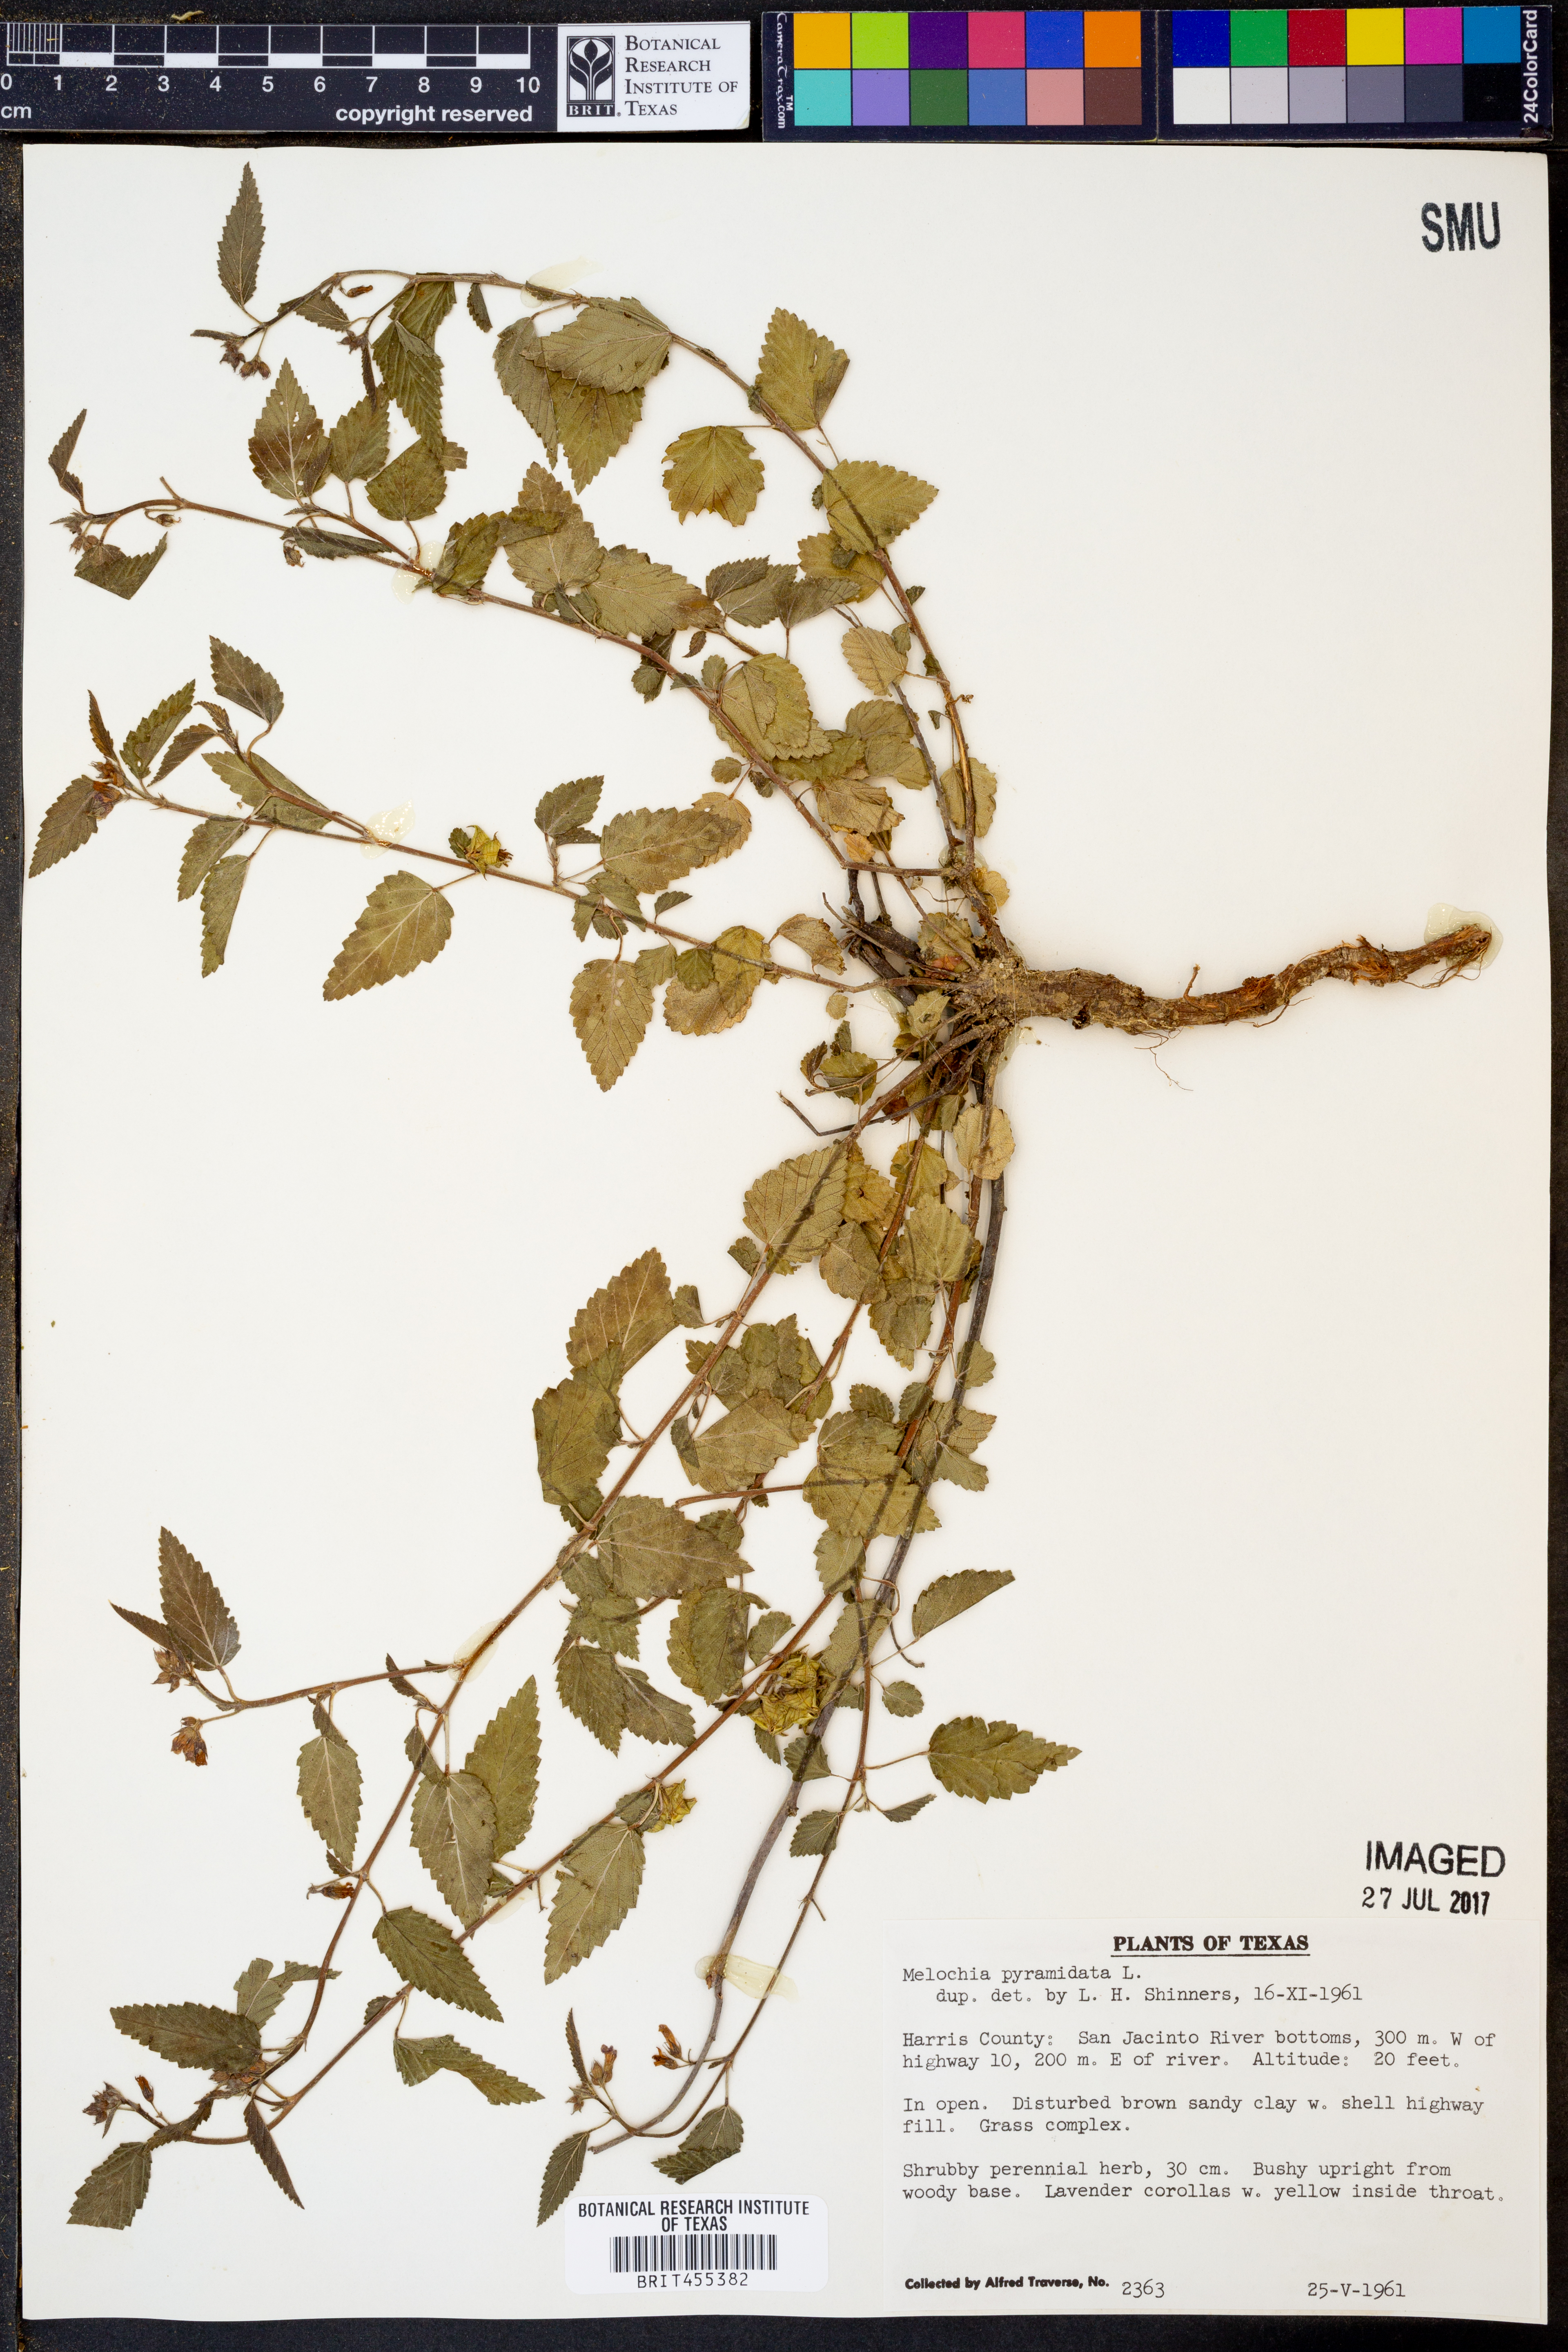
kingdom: Plantae
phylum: Tracheophyta
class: Magnoliopsida
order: Malvales
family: Malvaceae
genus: Melochia
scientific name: Melochia pyramidata
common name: Pyramidflower
